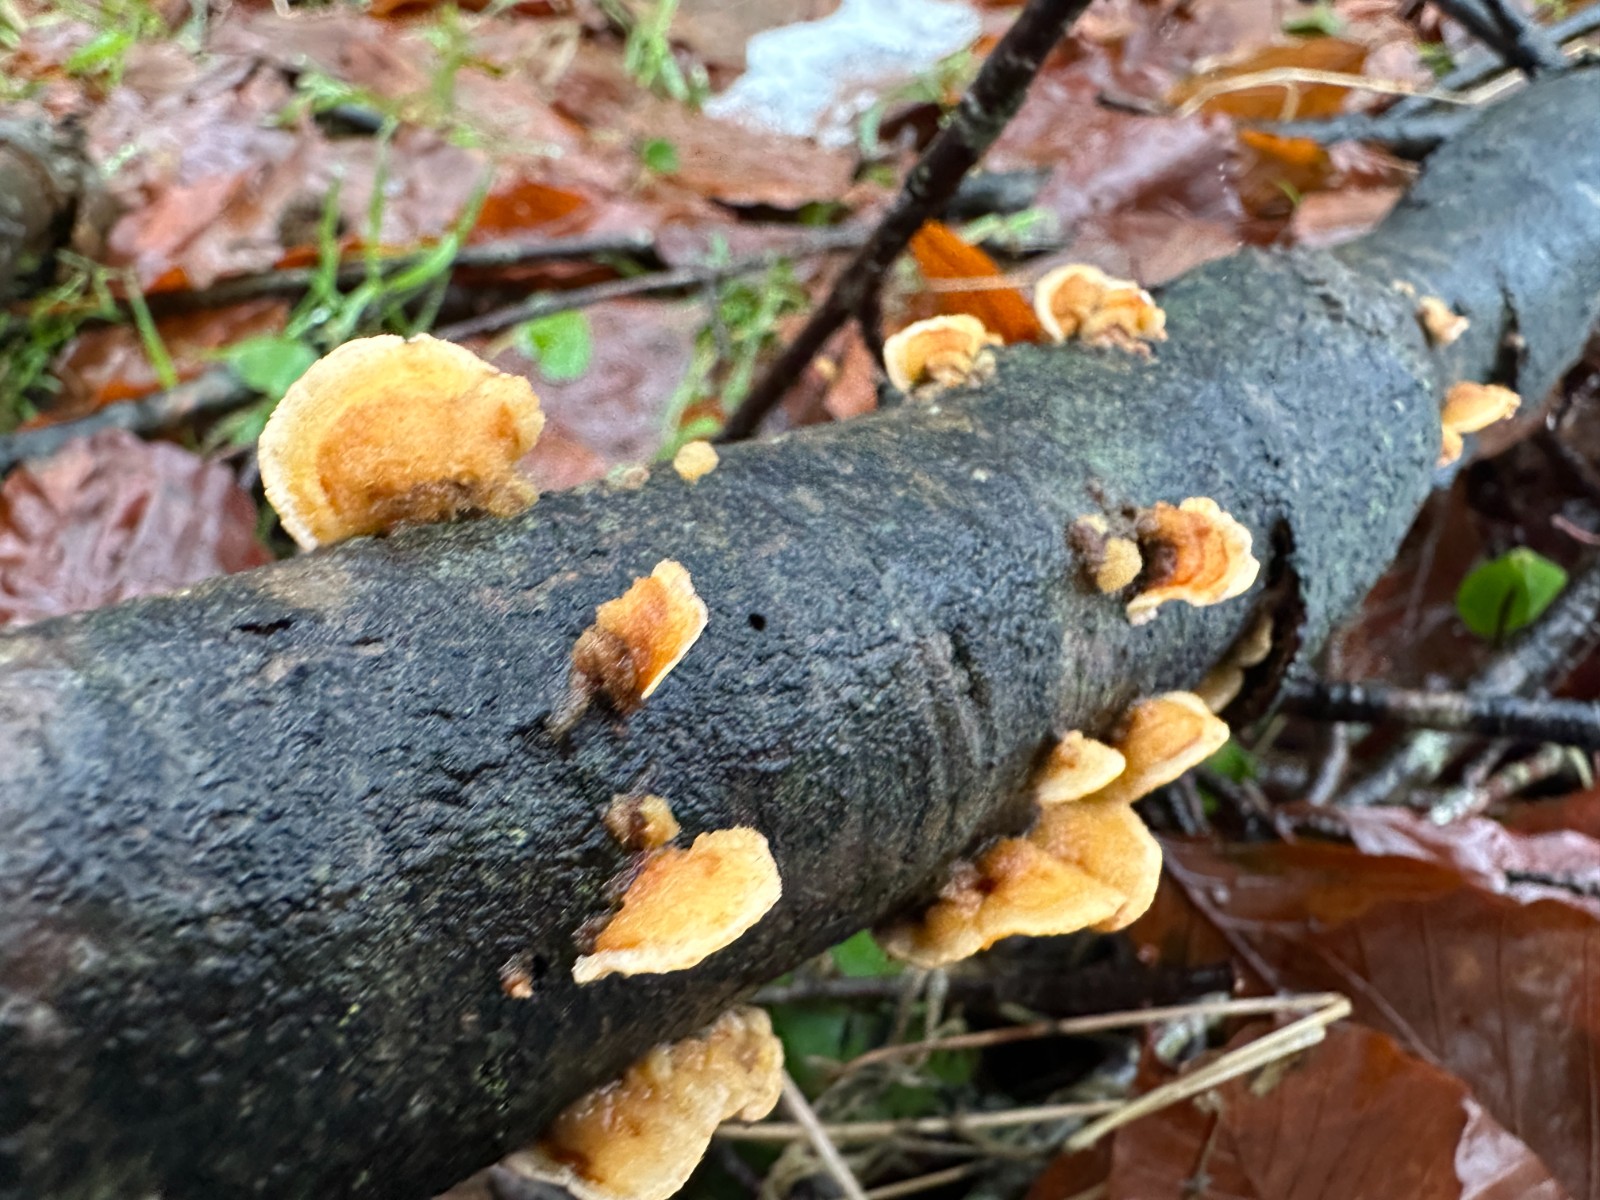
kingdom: Fungi
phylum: Basidiomycota
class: Agaricomycetes
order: Russulales
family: Stereaceae
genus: Stereum
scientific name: Stereum hirsutum
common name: håret lædersvamp
